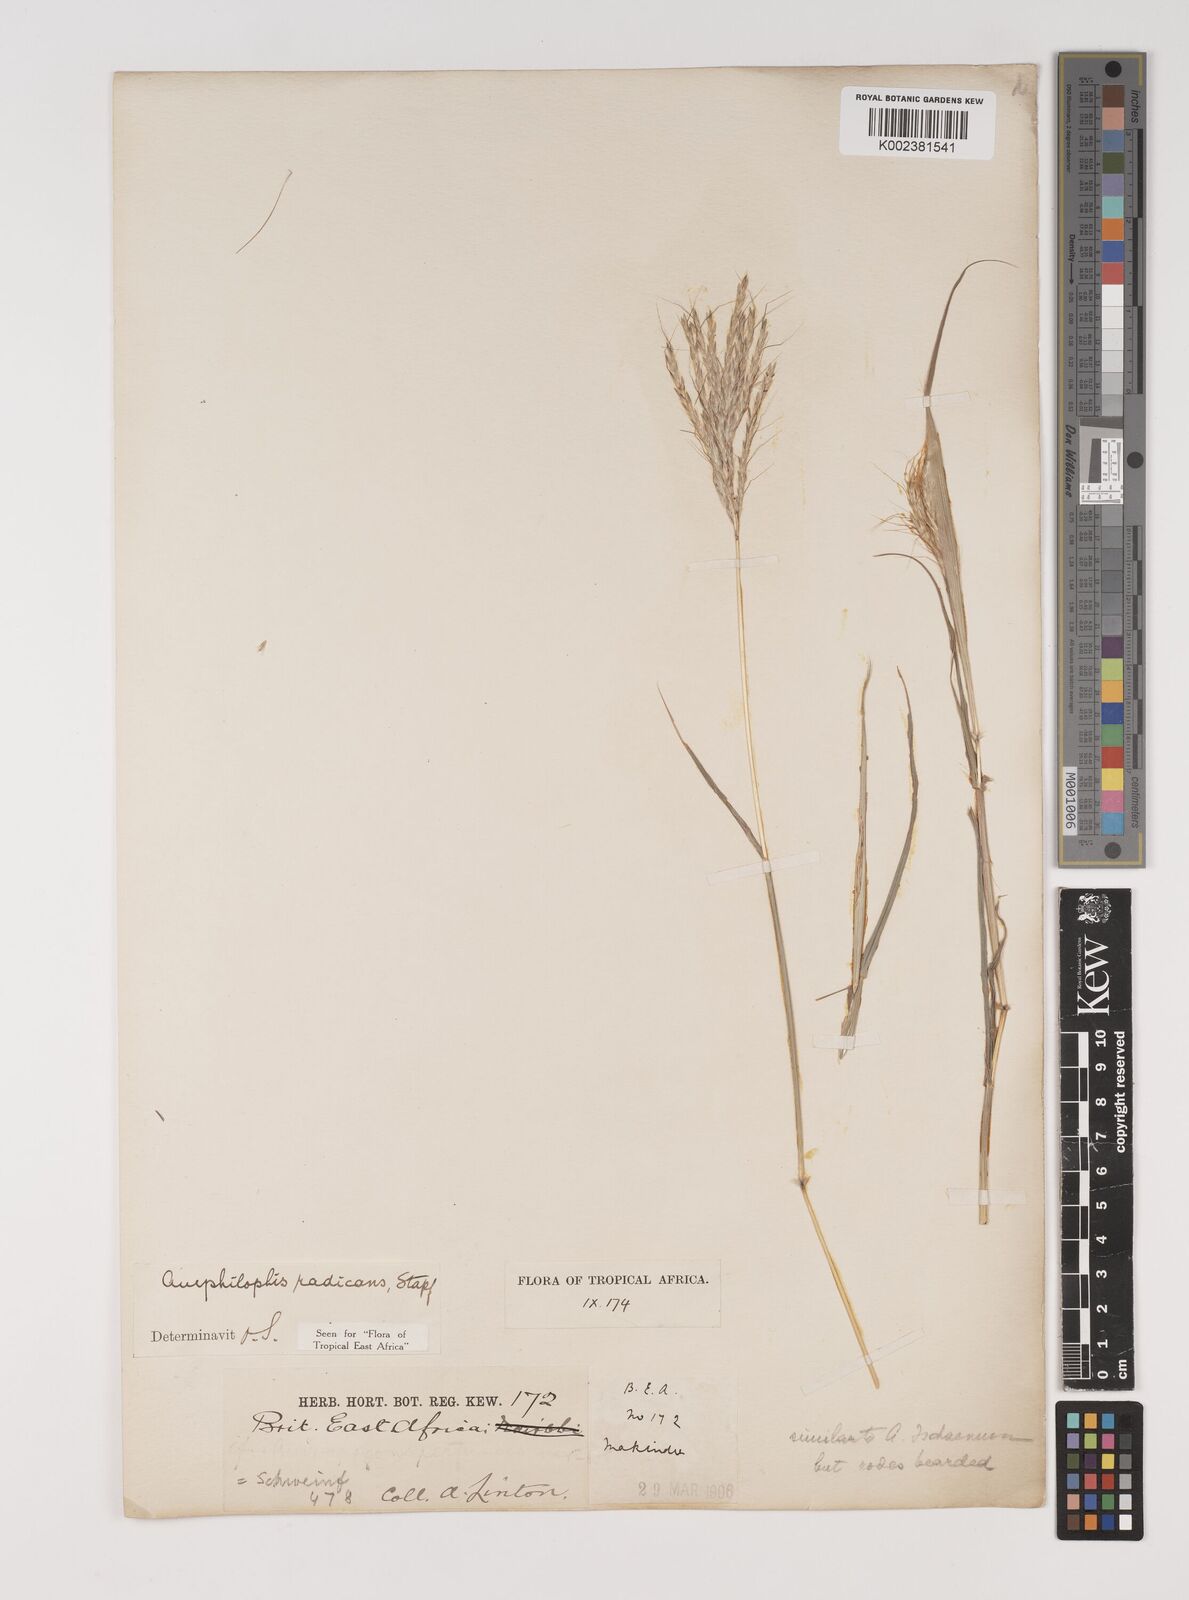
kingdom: Plantae
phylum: Tracheophyta
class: Liliopsida
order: Poales
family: Poaceae
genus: Bothriochloa
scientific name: Bothriochloa radicans
